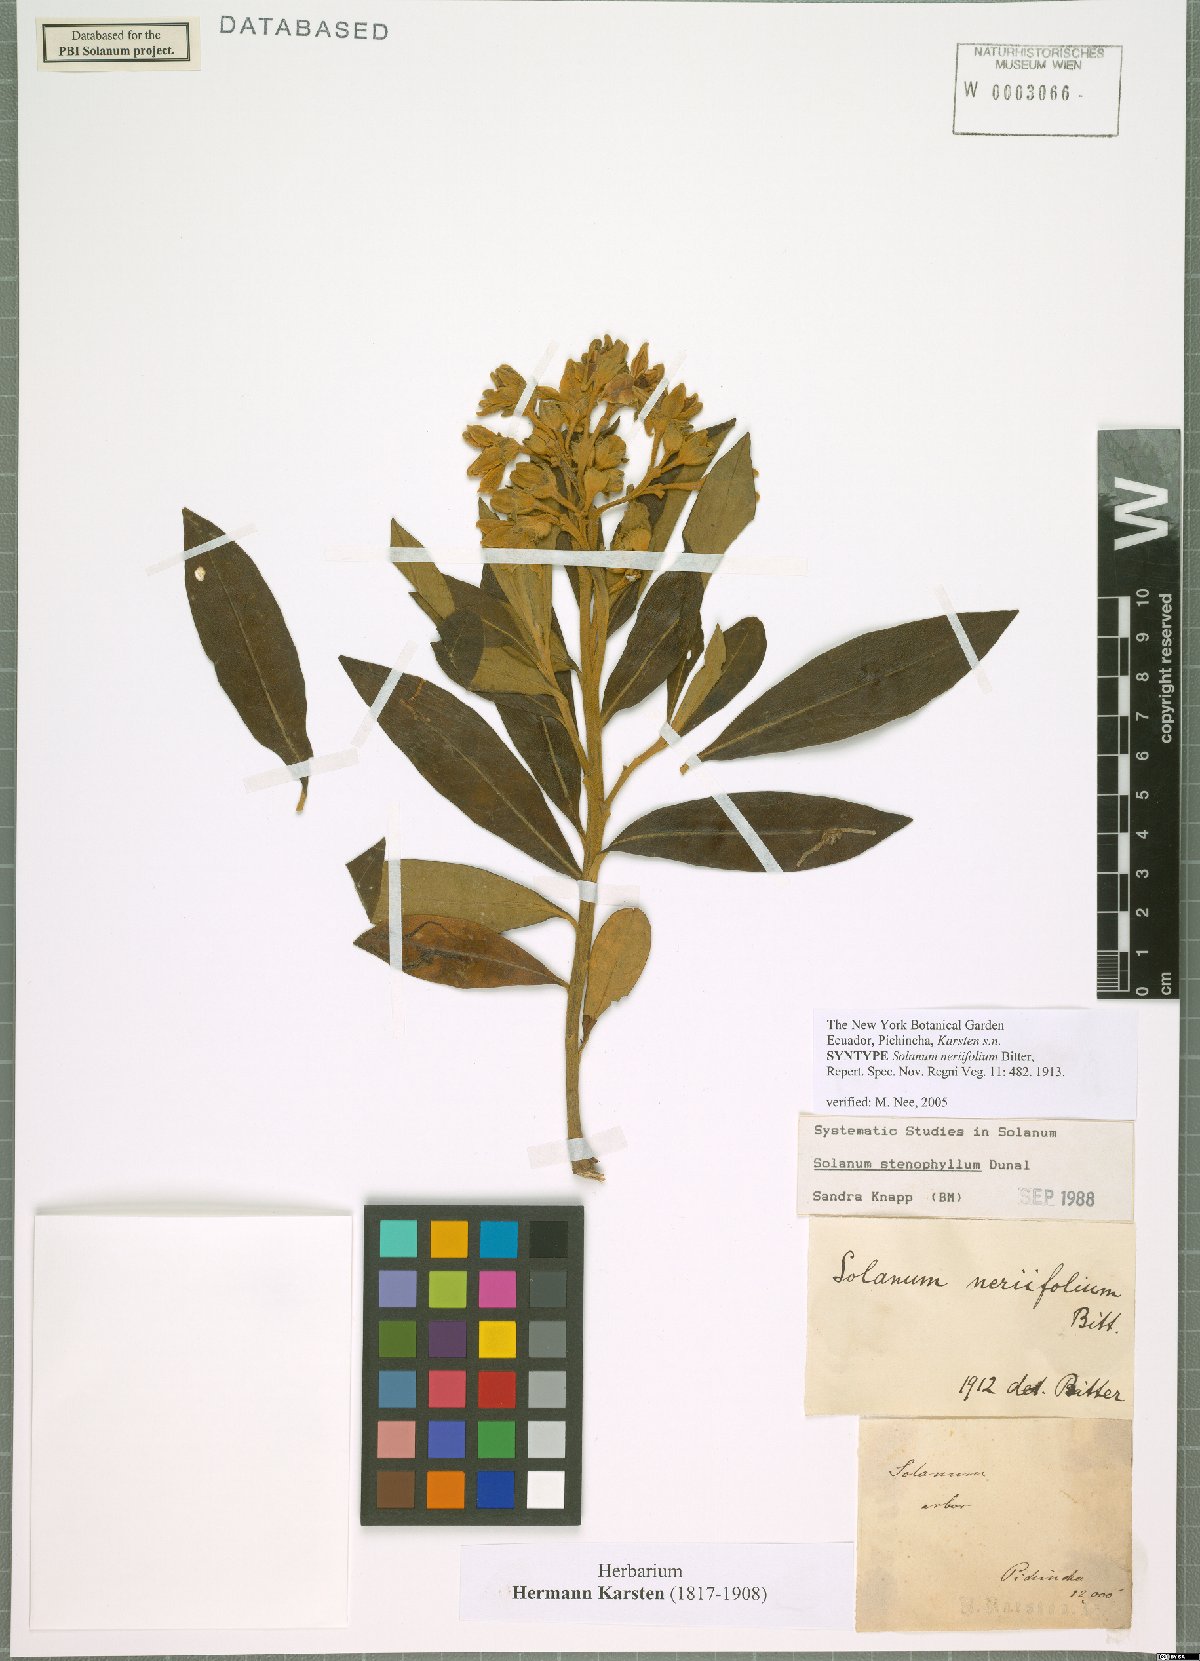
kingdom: Plantae
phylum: Tracheophyta
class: Magnoliopsida
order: Solanales
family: Solanaceae
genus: Solanum
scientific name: Solanum stenophyllum
